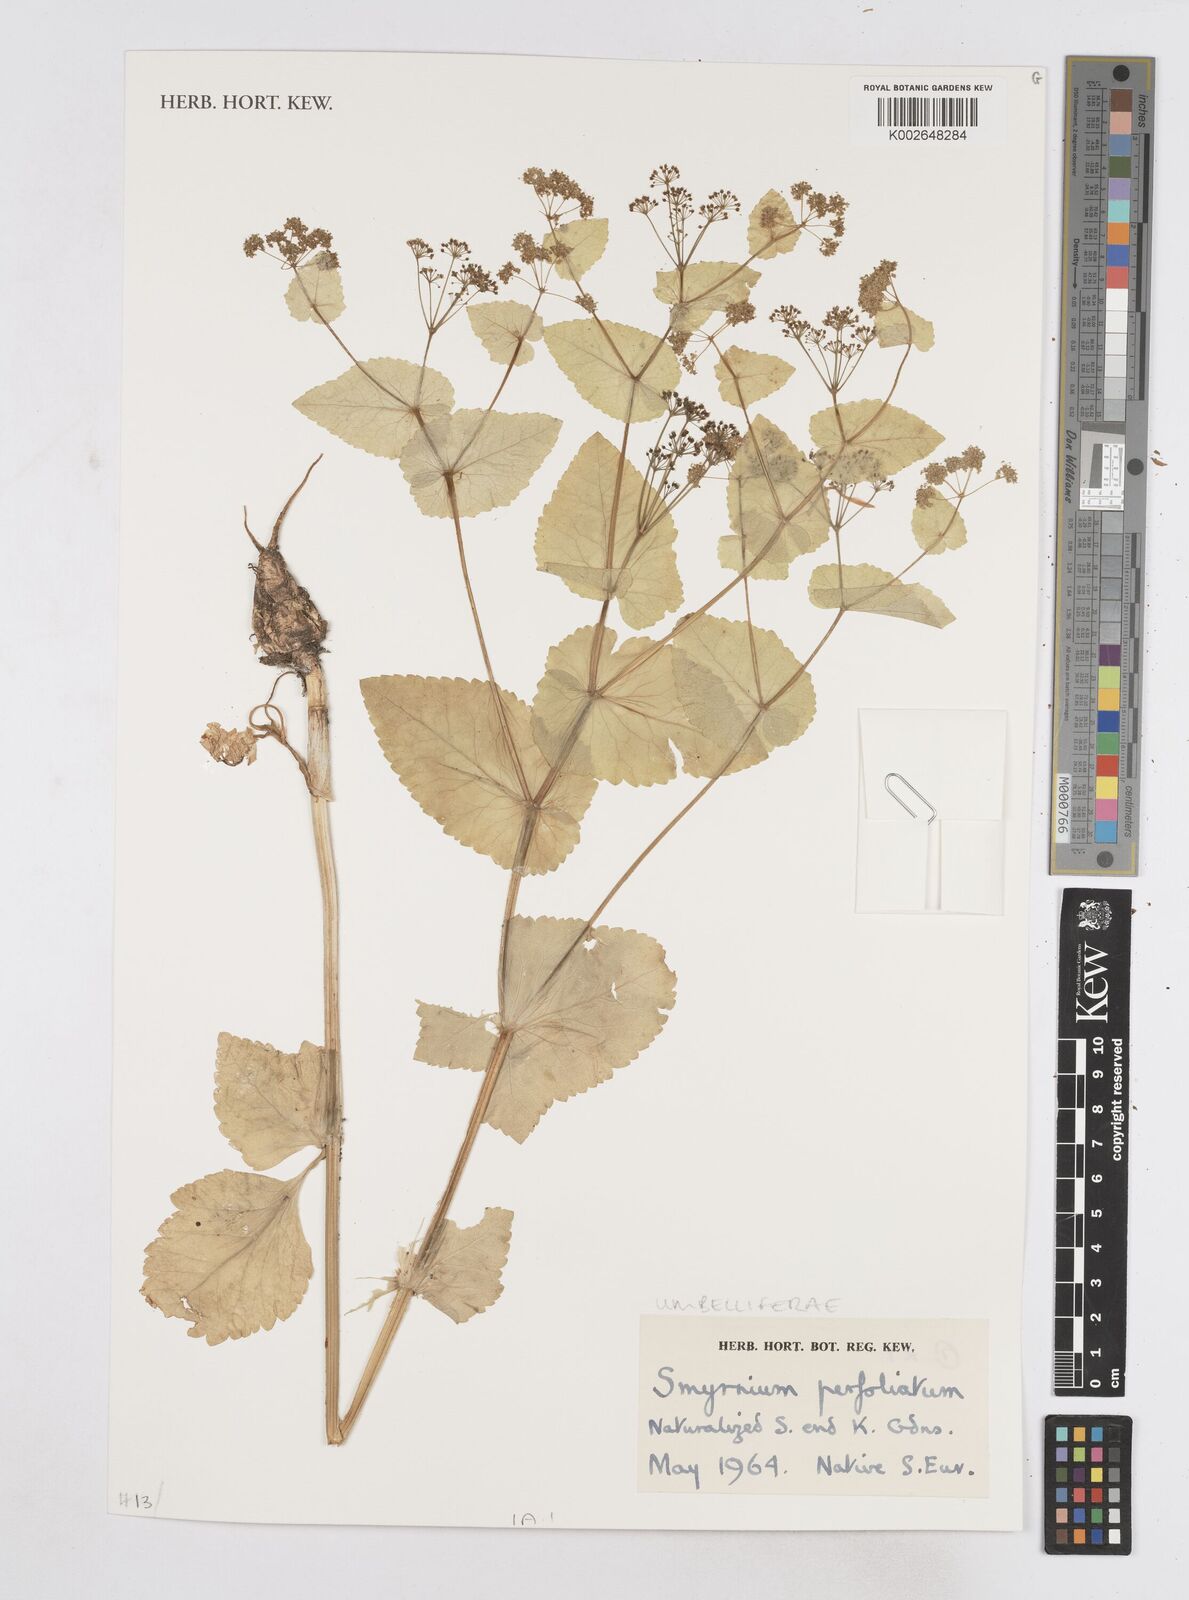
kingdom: Plantae
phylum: Tracheophyta
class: Magnoliopsida
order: Apiales
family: Apiaceae
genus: Smyrnium
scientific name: Smyrnium perfoliatum
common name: Perfoliate alexanders
